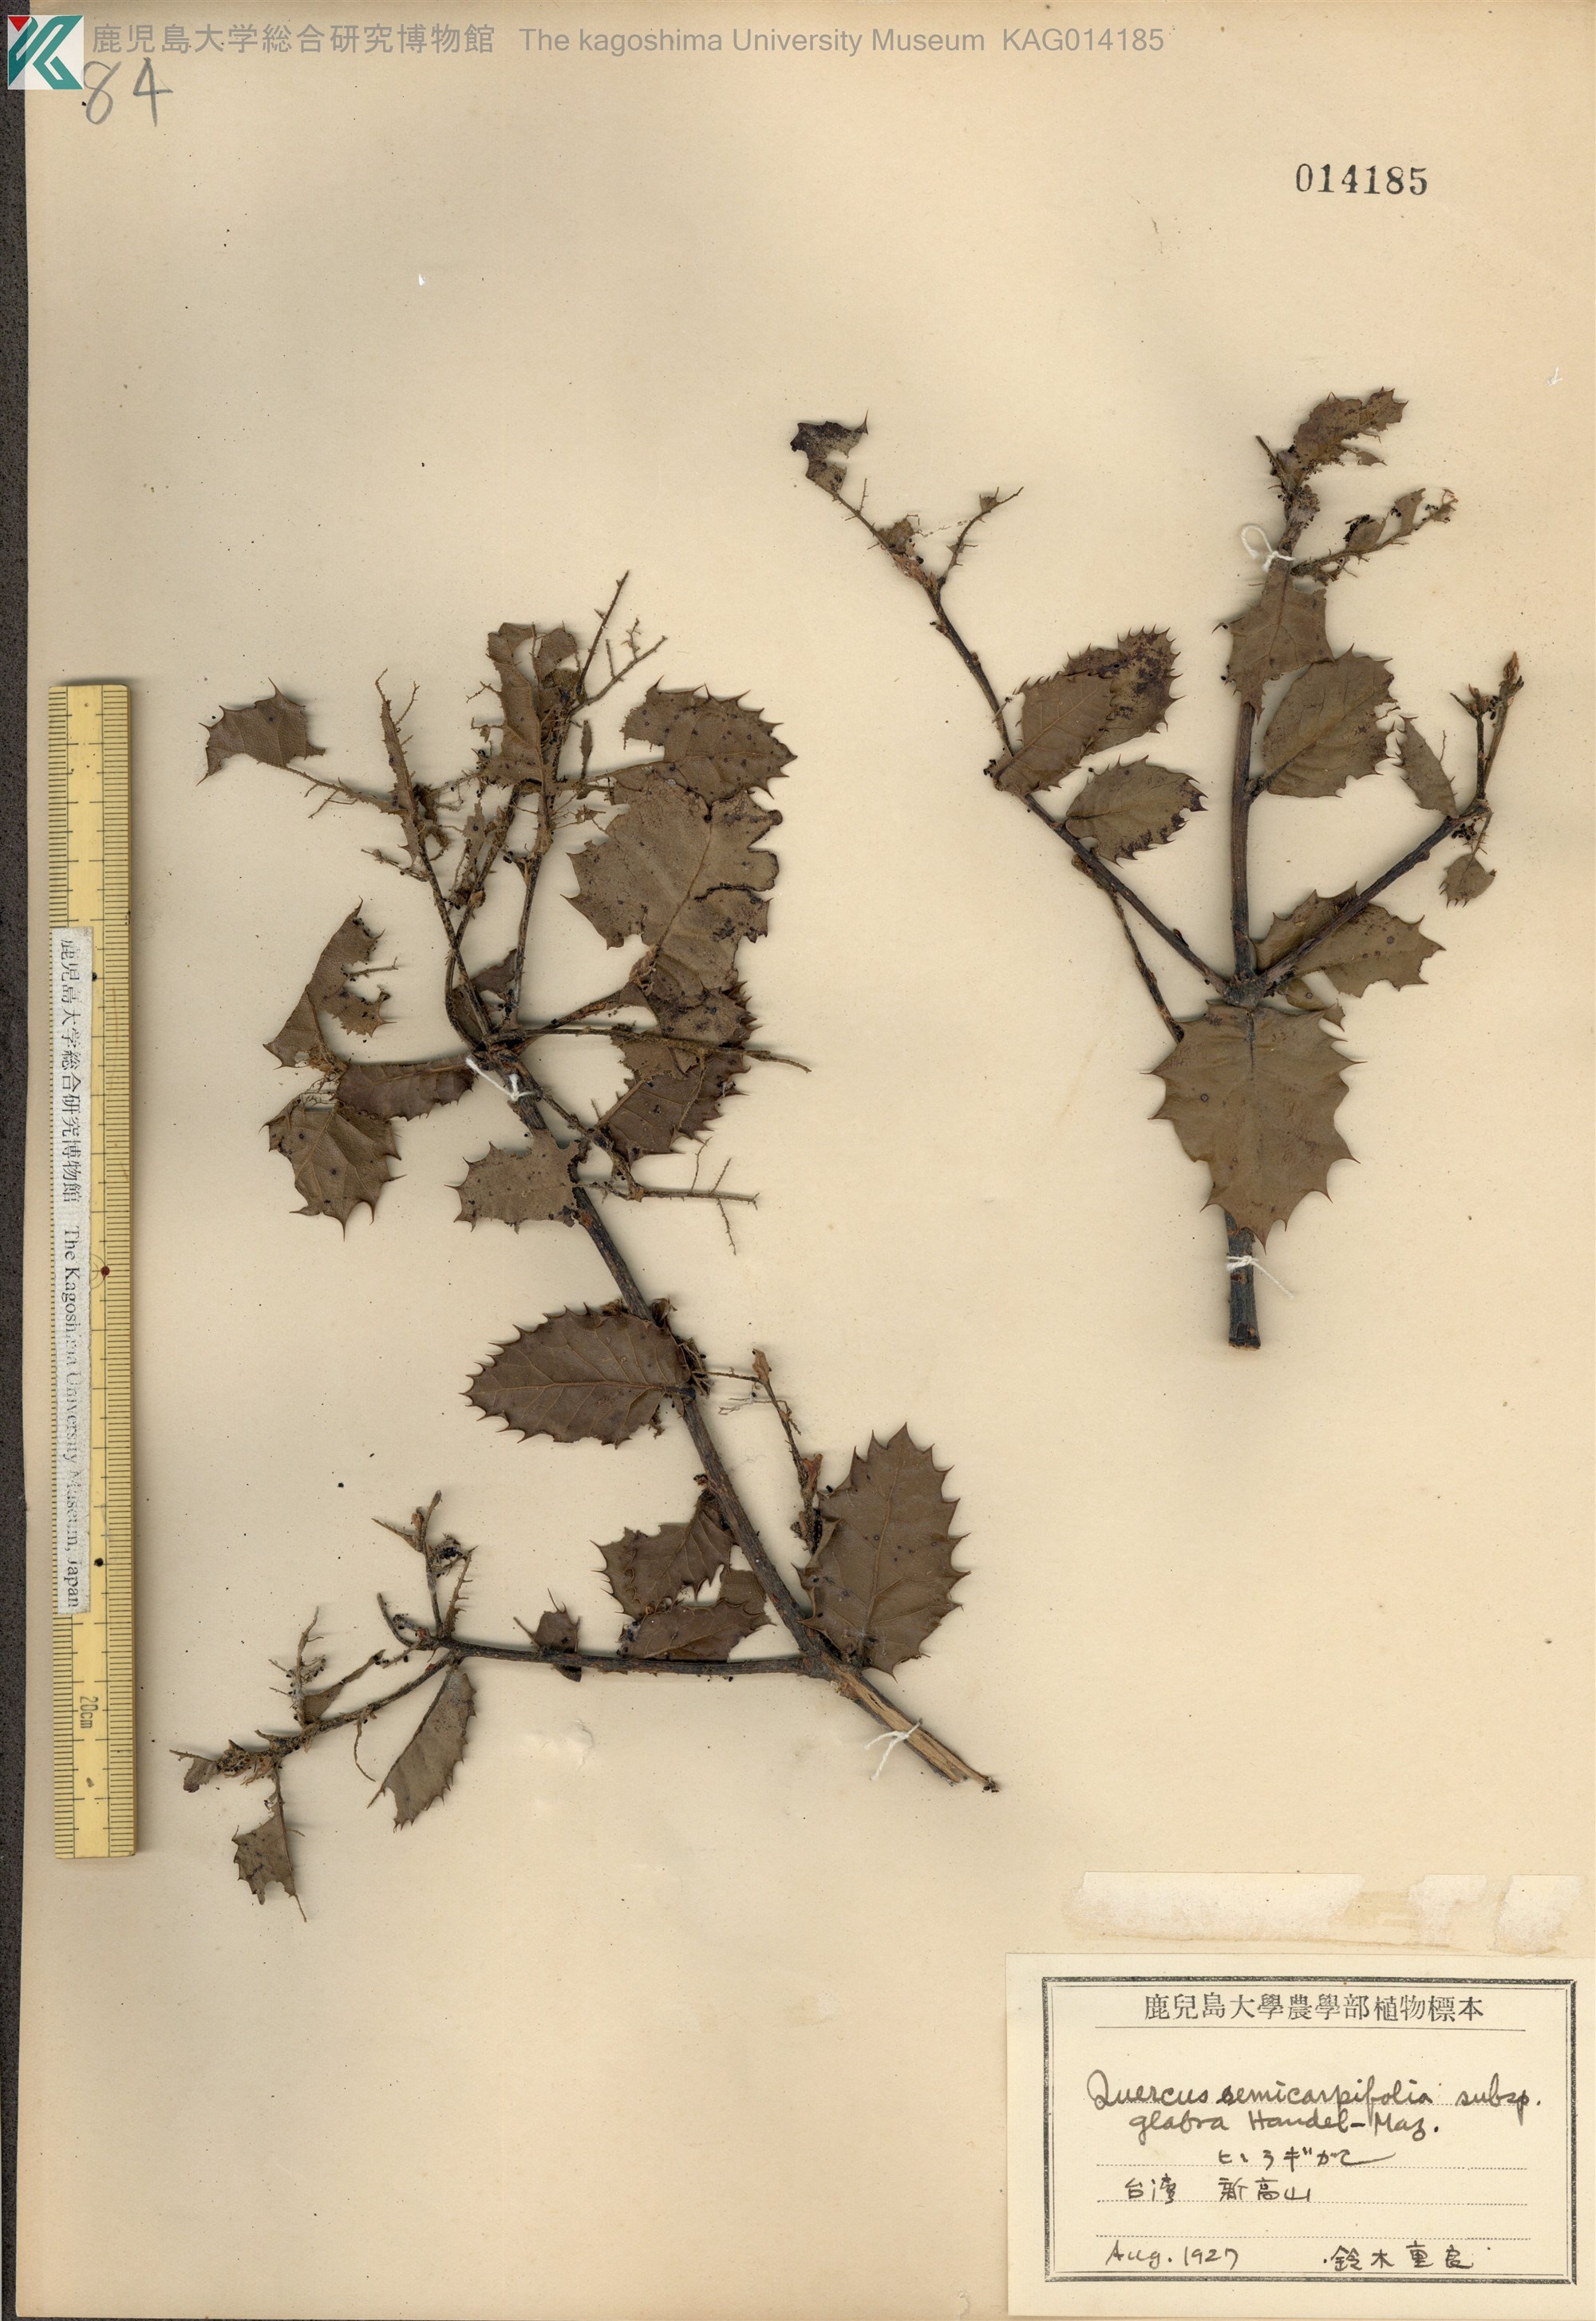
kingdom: Plantae
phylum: Tracheophyta
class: Magnoliopsida
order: Fagales
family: Fagaceae
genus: Quercus
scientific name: Quercus semecarpifolia
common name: Brown oak
